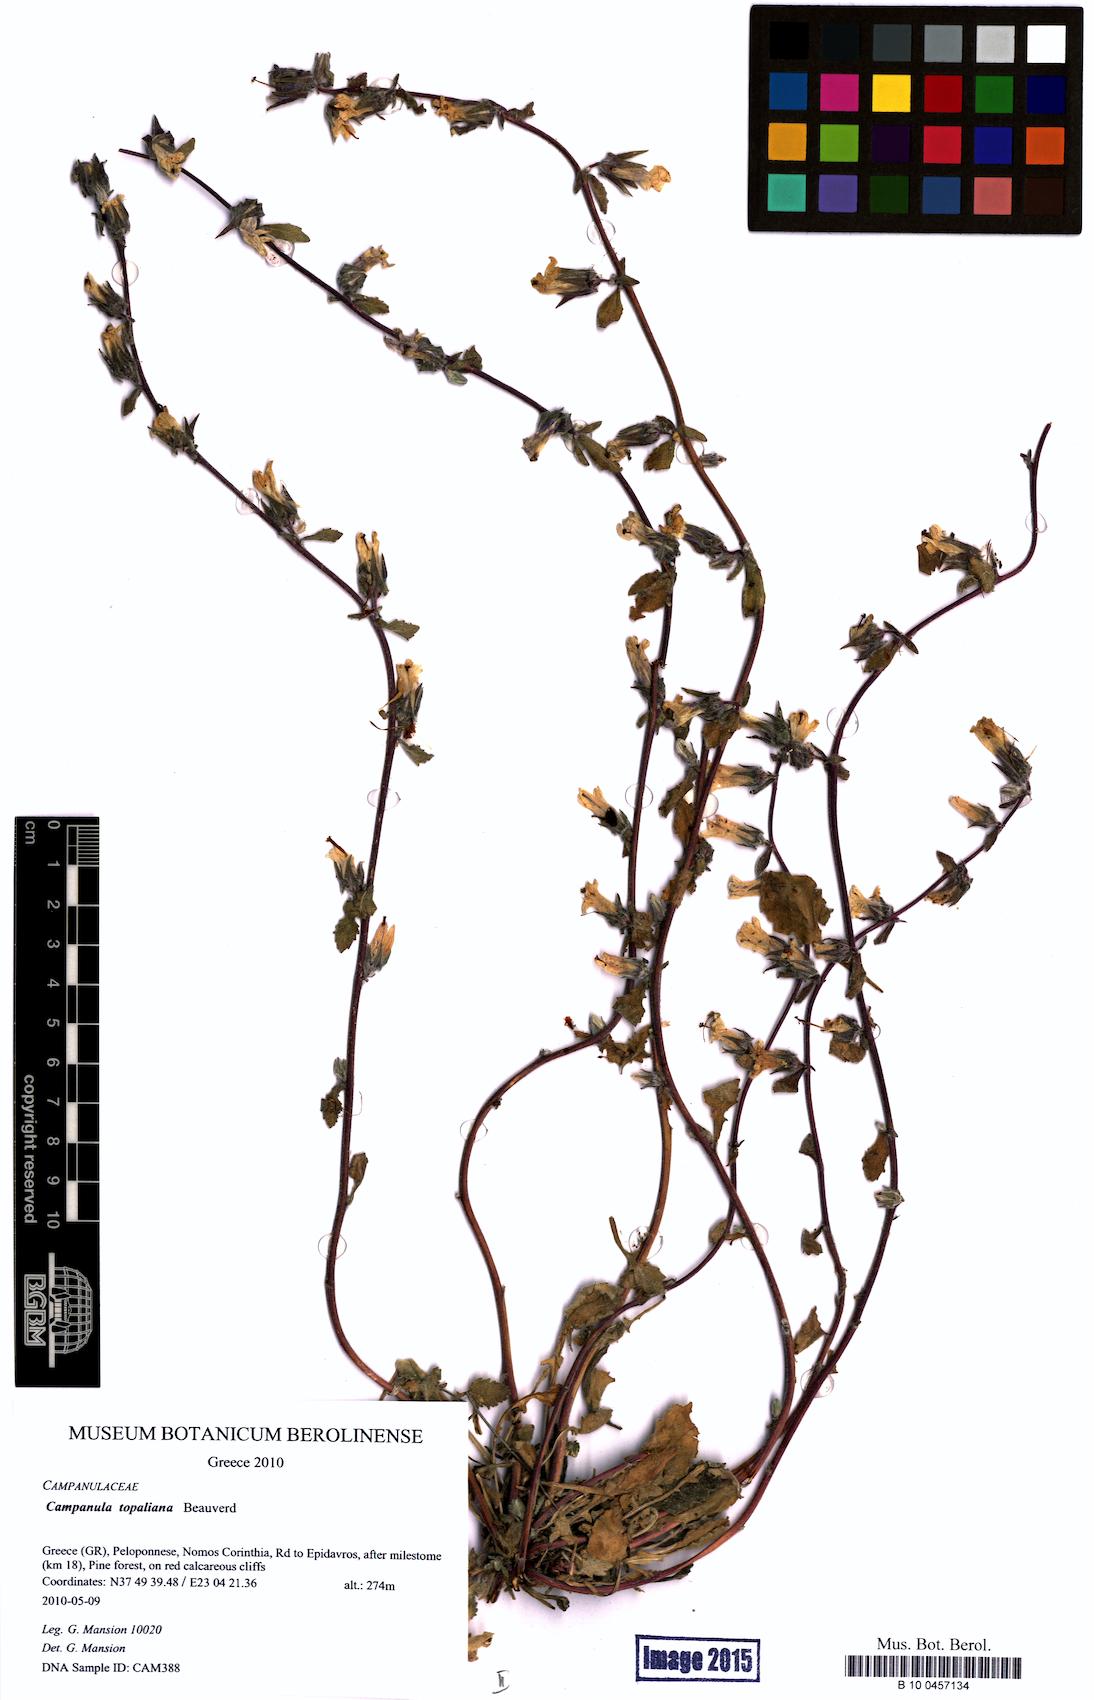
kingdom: Plantae
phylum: Tracheophyta
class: Magnoliopsida
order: Asterales
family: Campanulaceae
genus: Campanula
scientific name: Campanula topaliana
